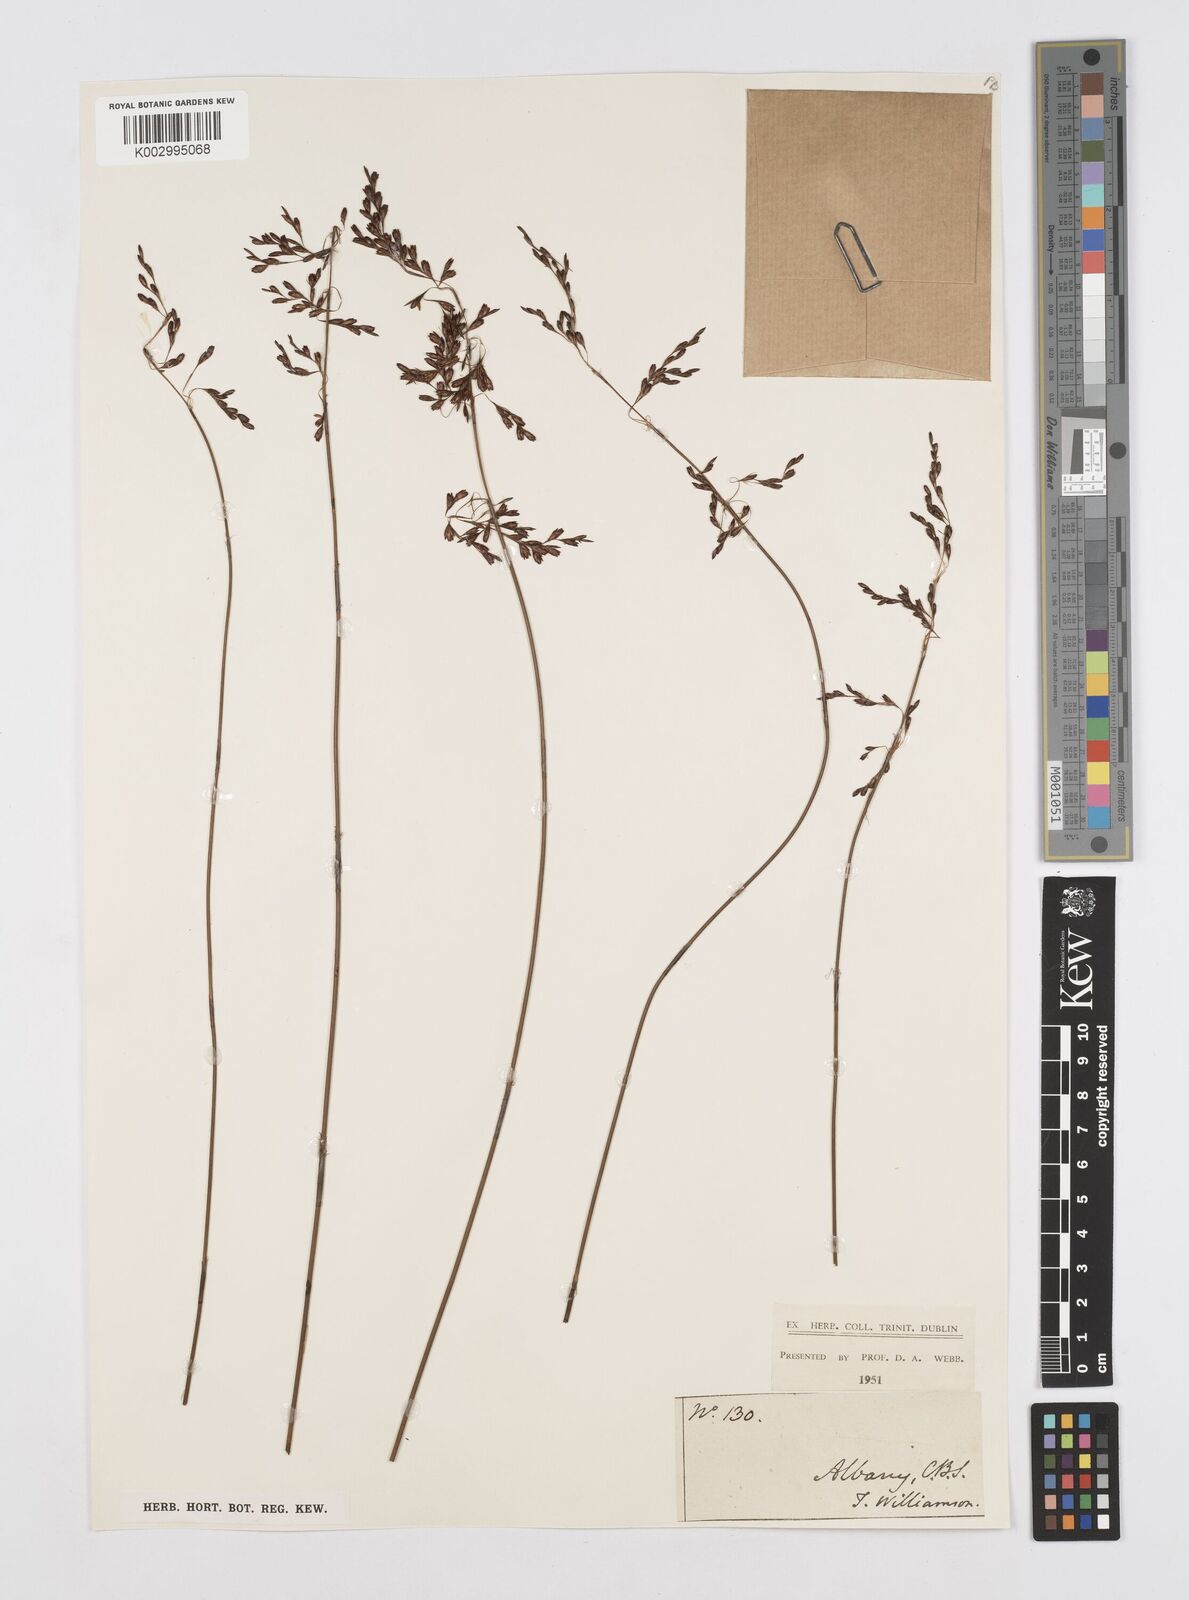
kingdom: Plantae
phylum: Tracheophyta
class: Liliopsida
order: Poales
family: Restionaceae
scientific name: Restionaceae
